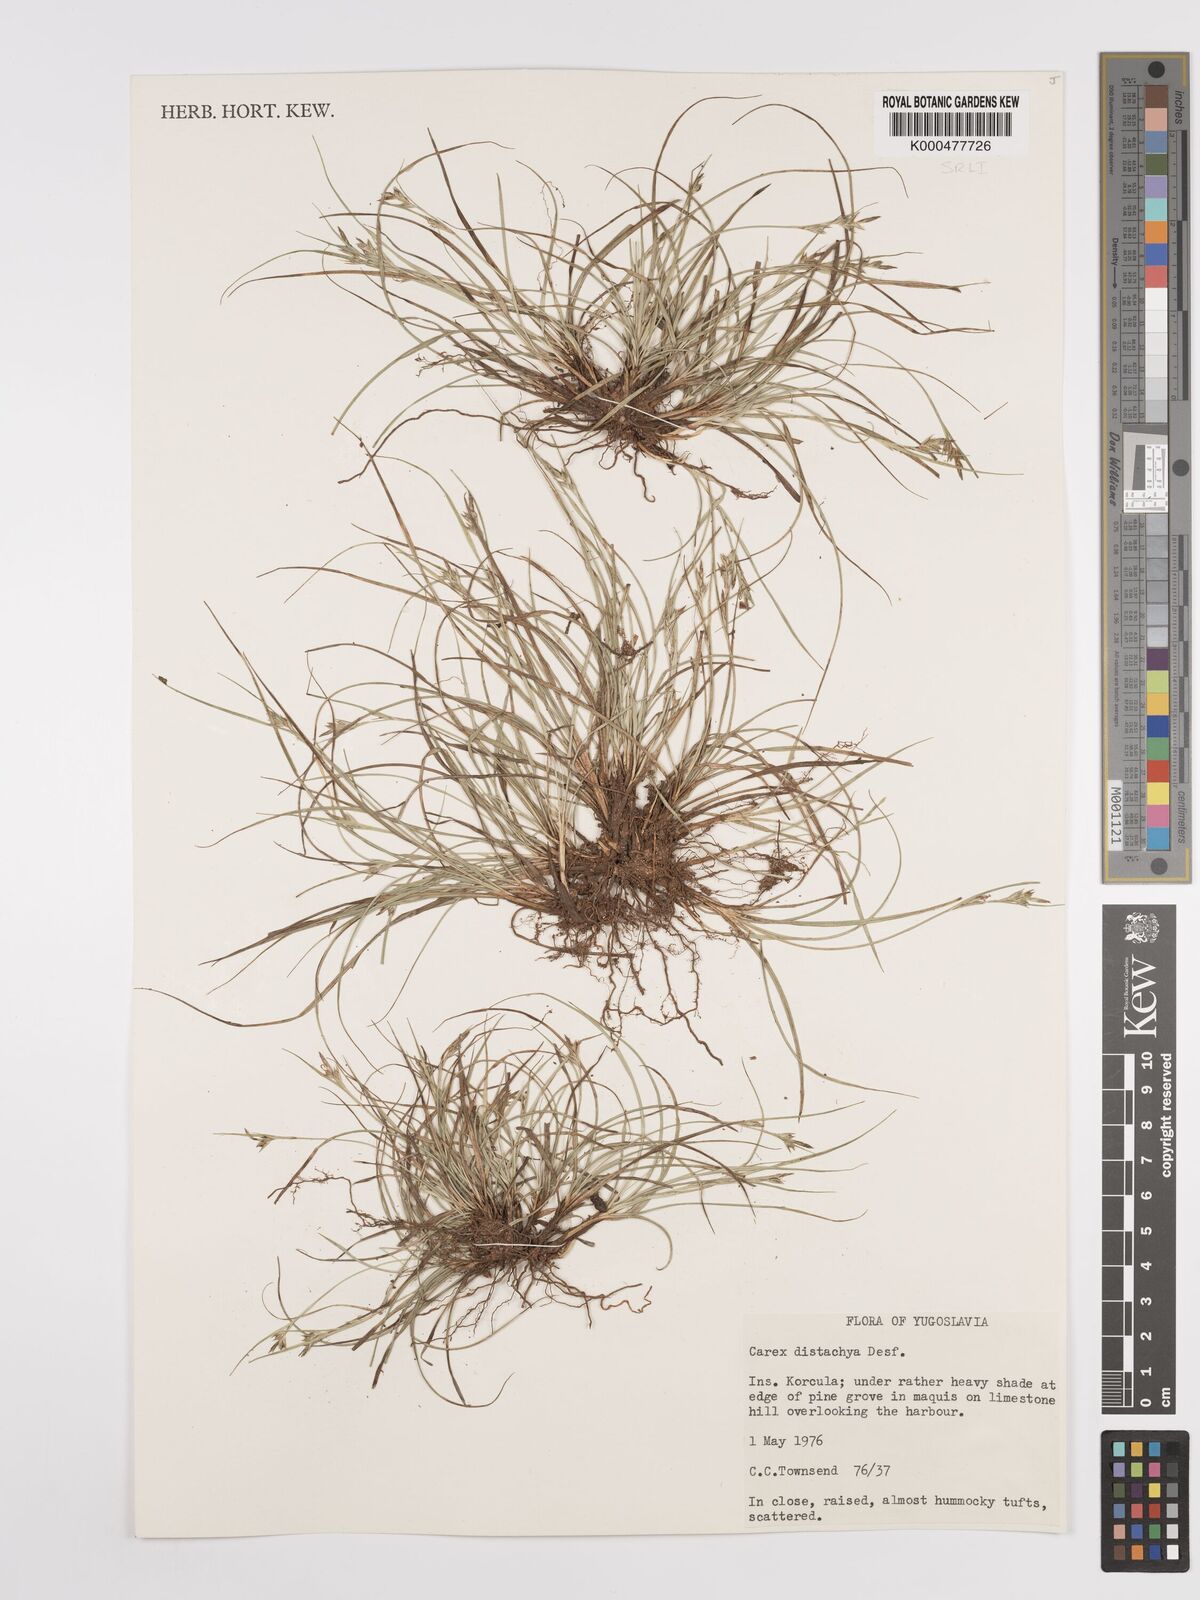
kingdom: Plantae
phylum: Tracheophyta
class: Liliopsida
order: Poales
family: Cyperaceae
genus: Carex
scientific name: Carex distachya
